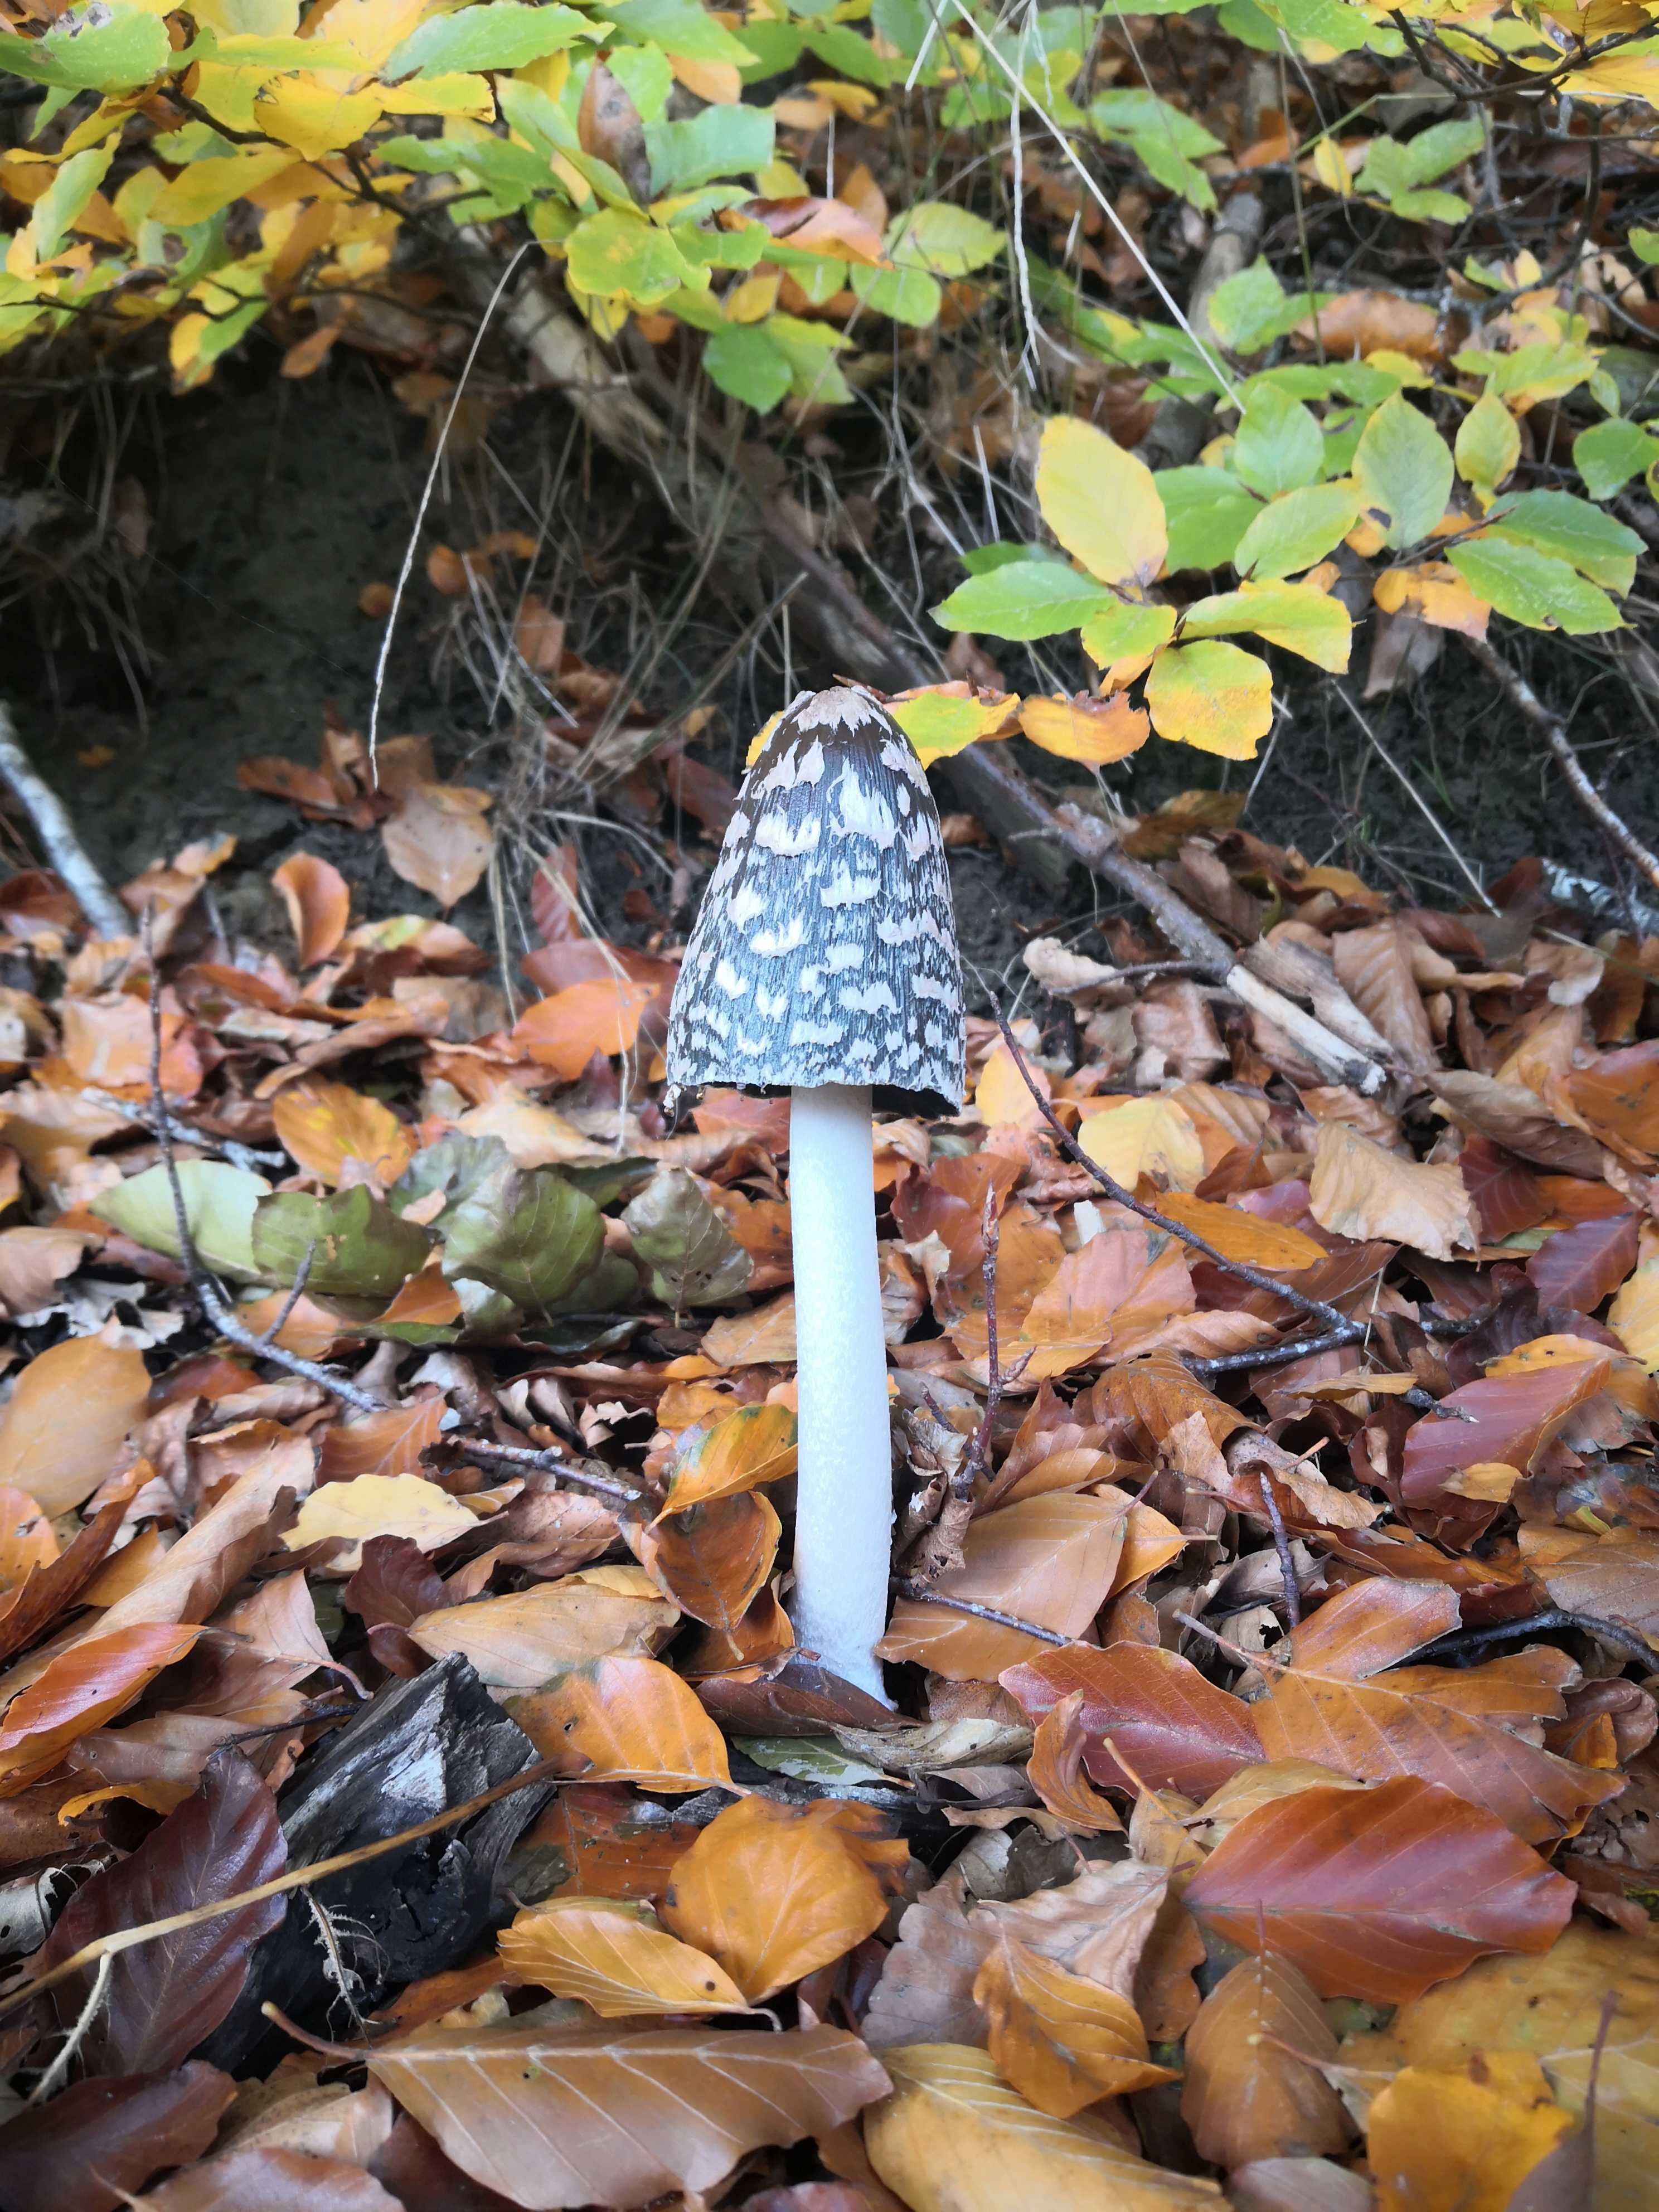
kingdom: Fungi
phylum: Basidiomycota
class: Agaricomycetes
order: Agaricales
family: Psathyrellaceae
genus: Coprinopsis
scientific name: Coprinopsis picacea
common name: skade-blækhat
